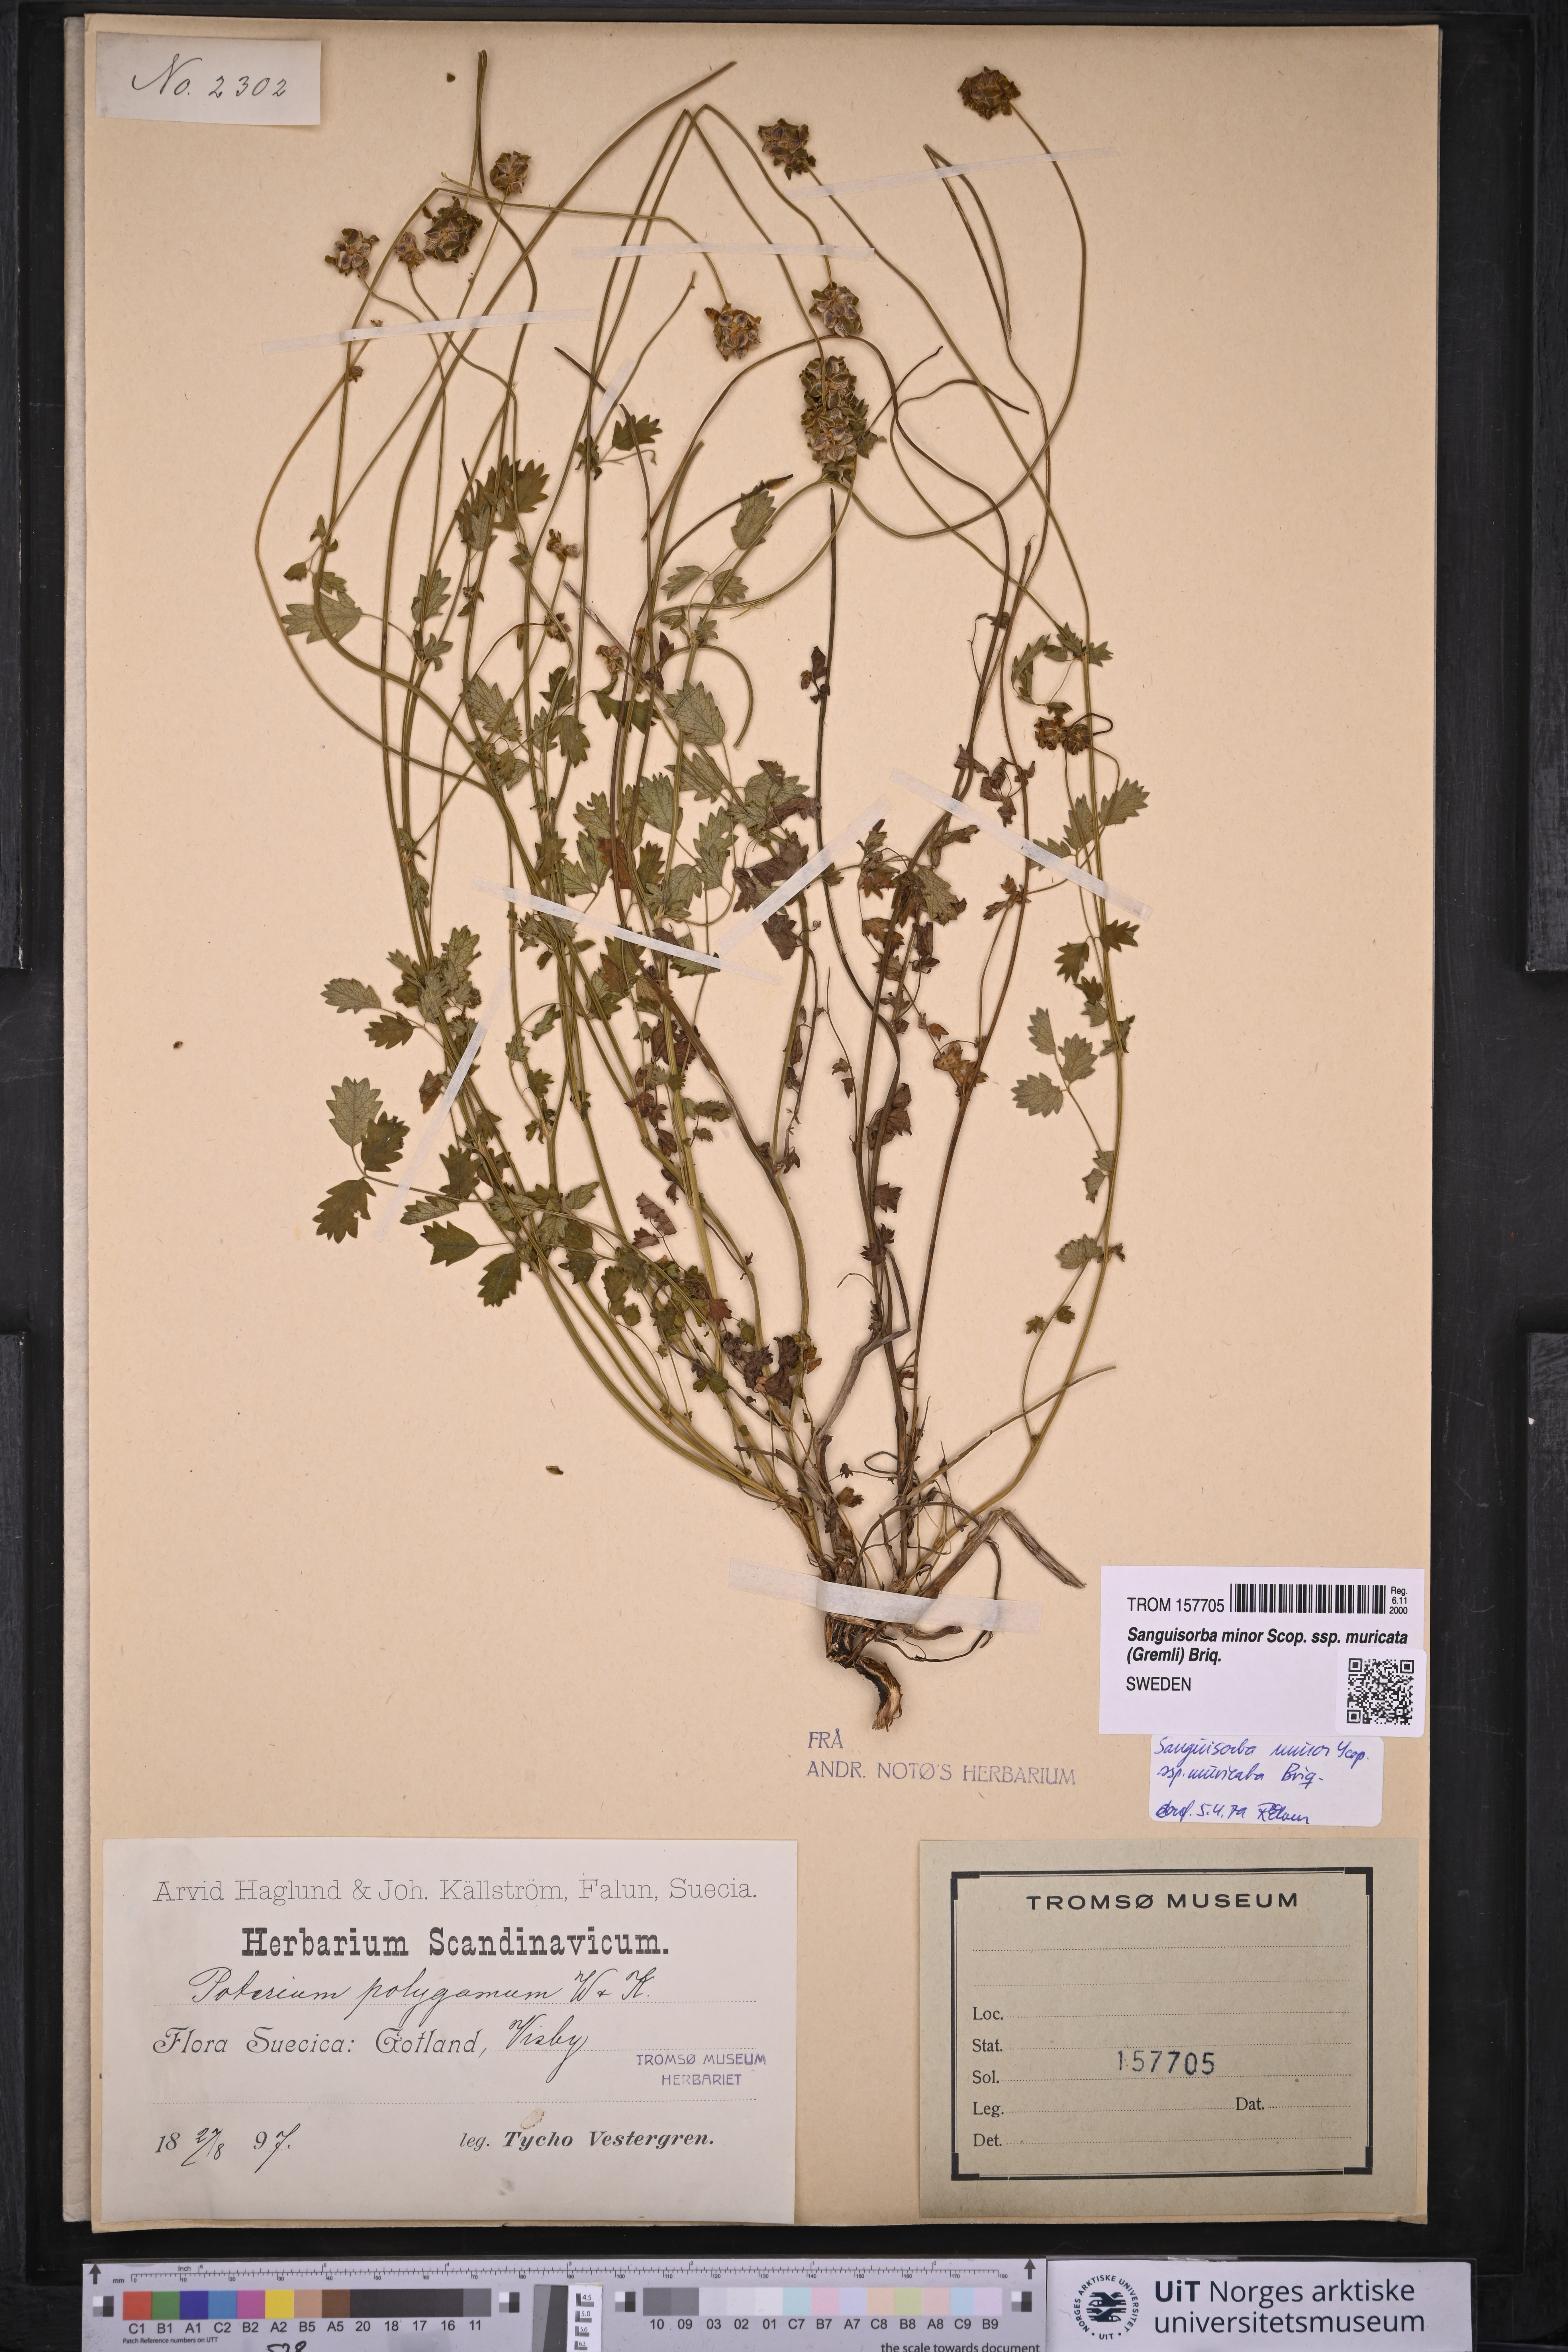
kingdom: Plantae
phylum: Tracheophyta
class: Magnoliopsida
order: Rosales
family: Rosaceae
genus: Poterium
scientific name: Poterium sanguisorba
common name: Salad burnet
